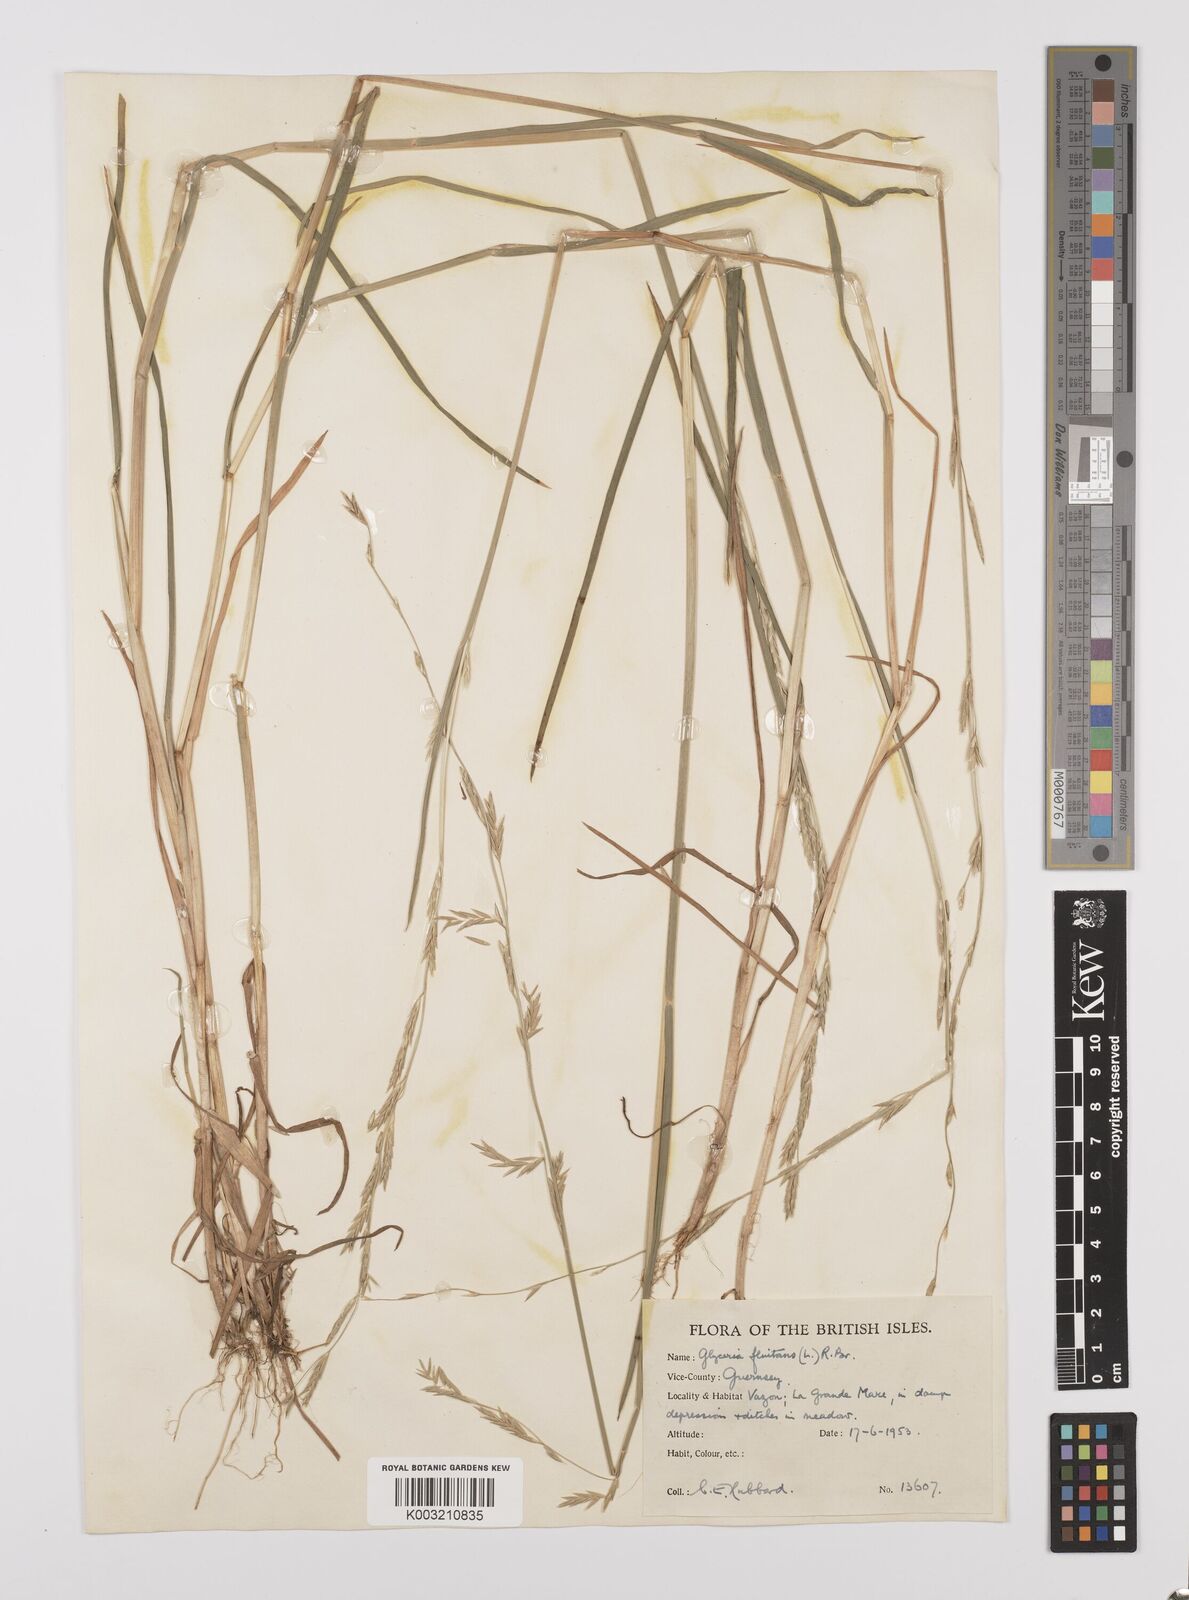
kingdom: Plantae
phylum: Tracheophyta
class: Liliopsida
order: Poales
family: Poaceae
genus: Glyceria
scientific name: Glyceria fluitans
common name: Floating sweet-grass
